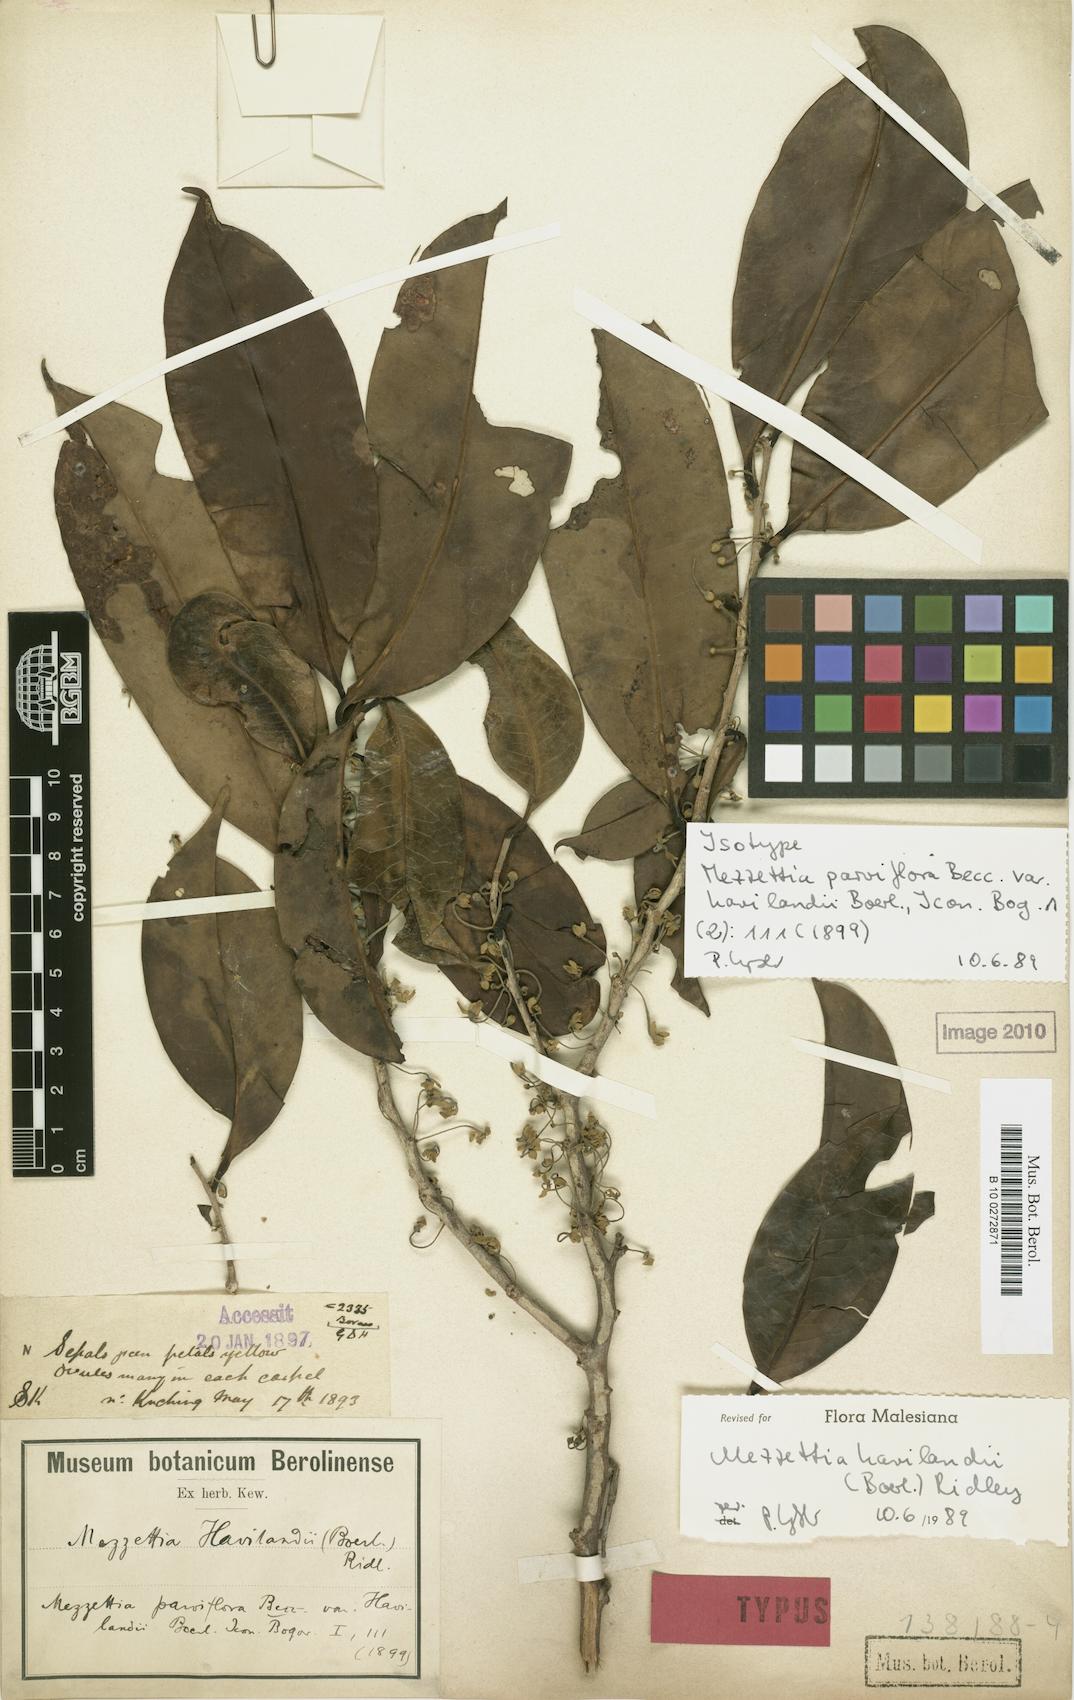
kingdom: Plantae
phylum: Tracheophyta
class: Magnoliopsida
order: Magnoliales
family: Annonaceae
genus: Mezzettia
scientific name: Mezzettia havilandii
